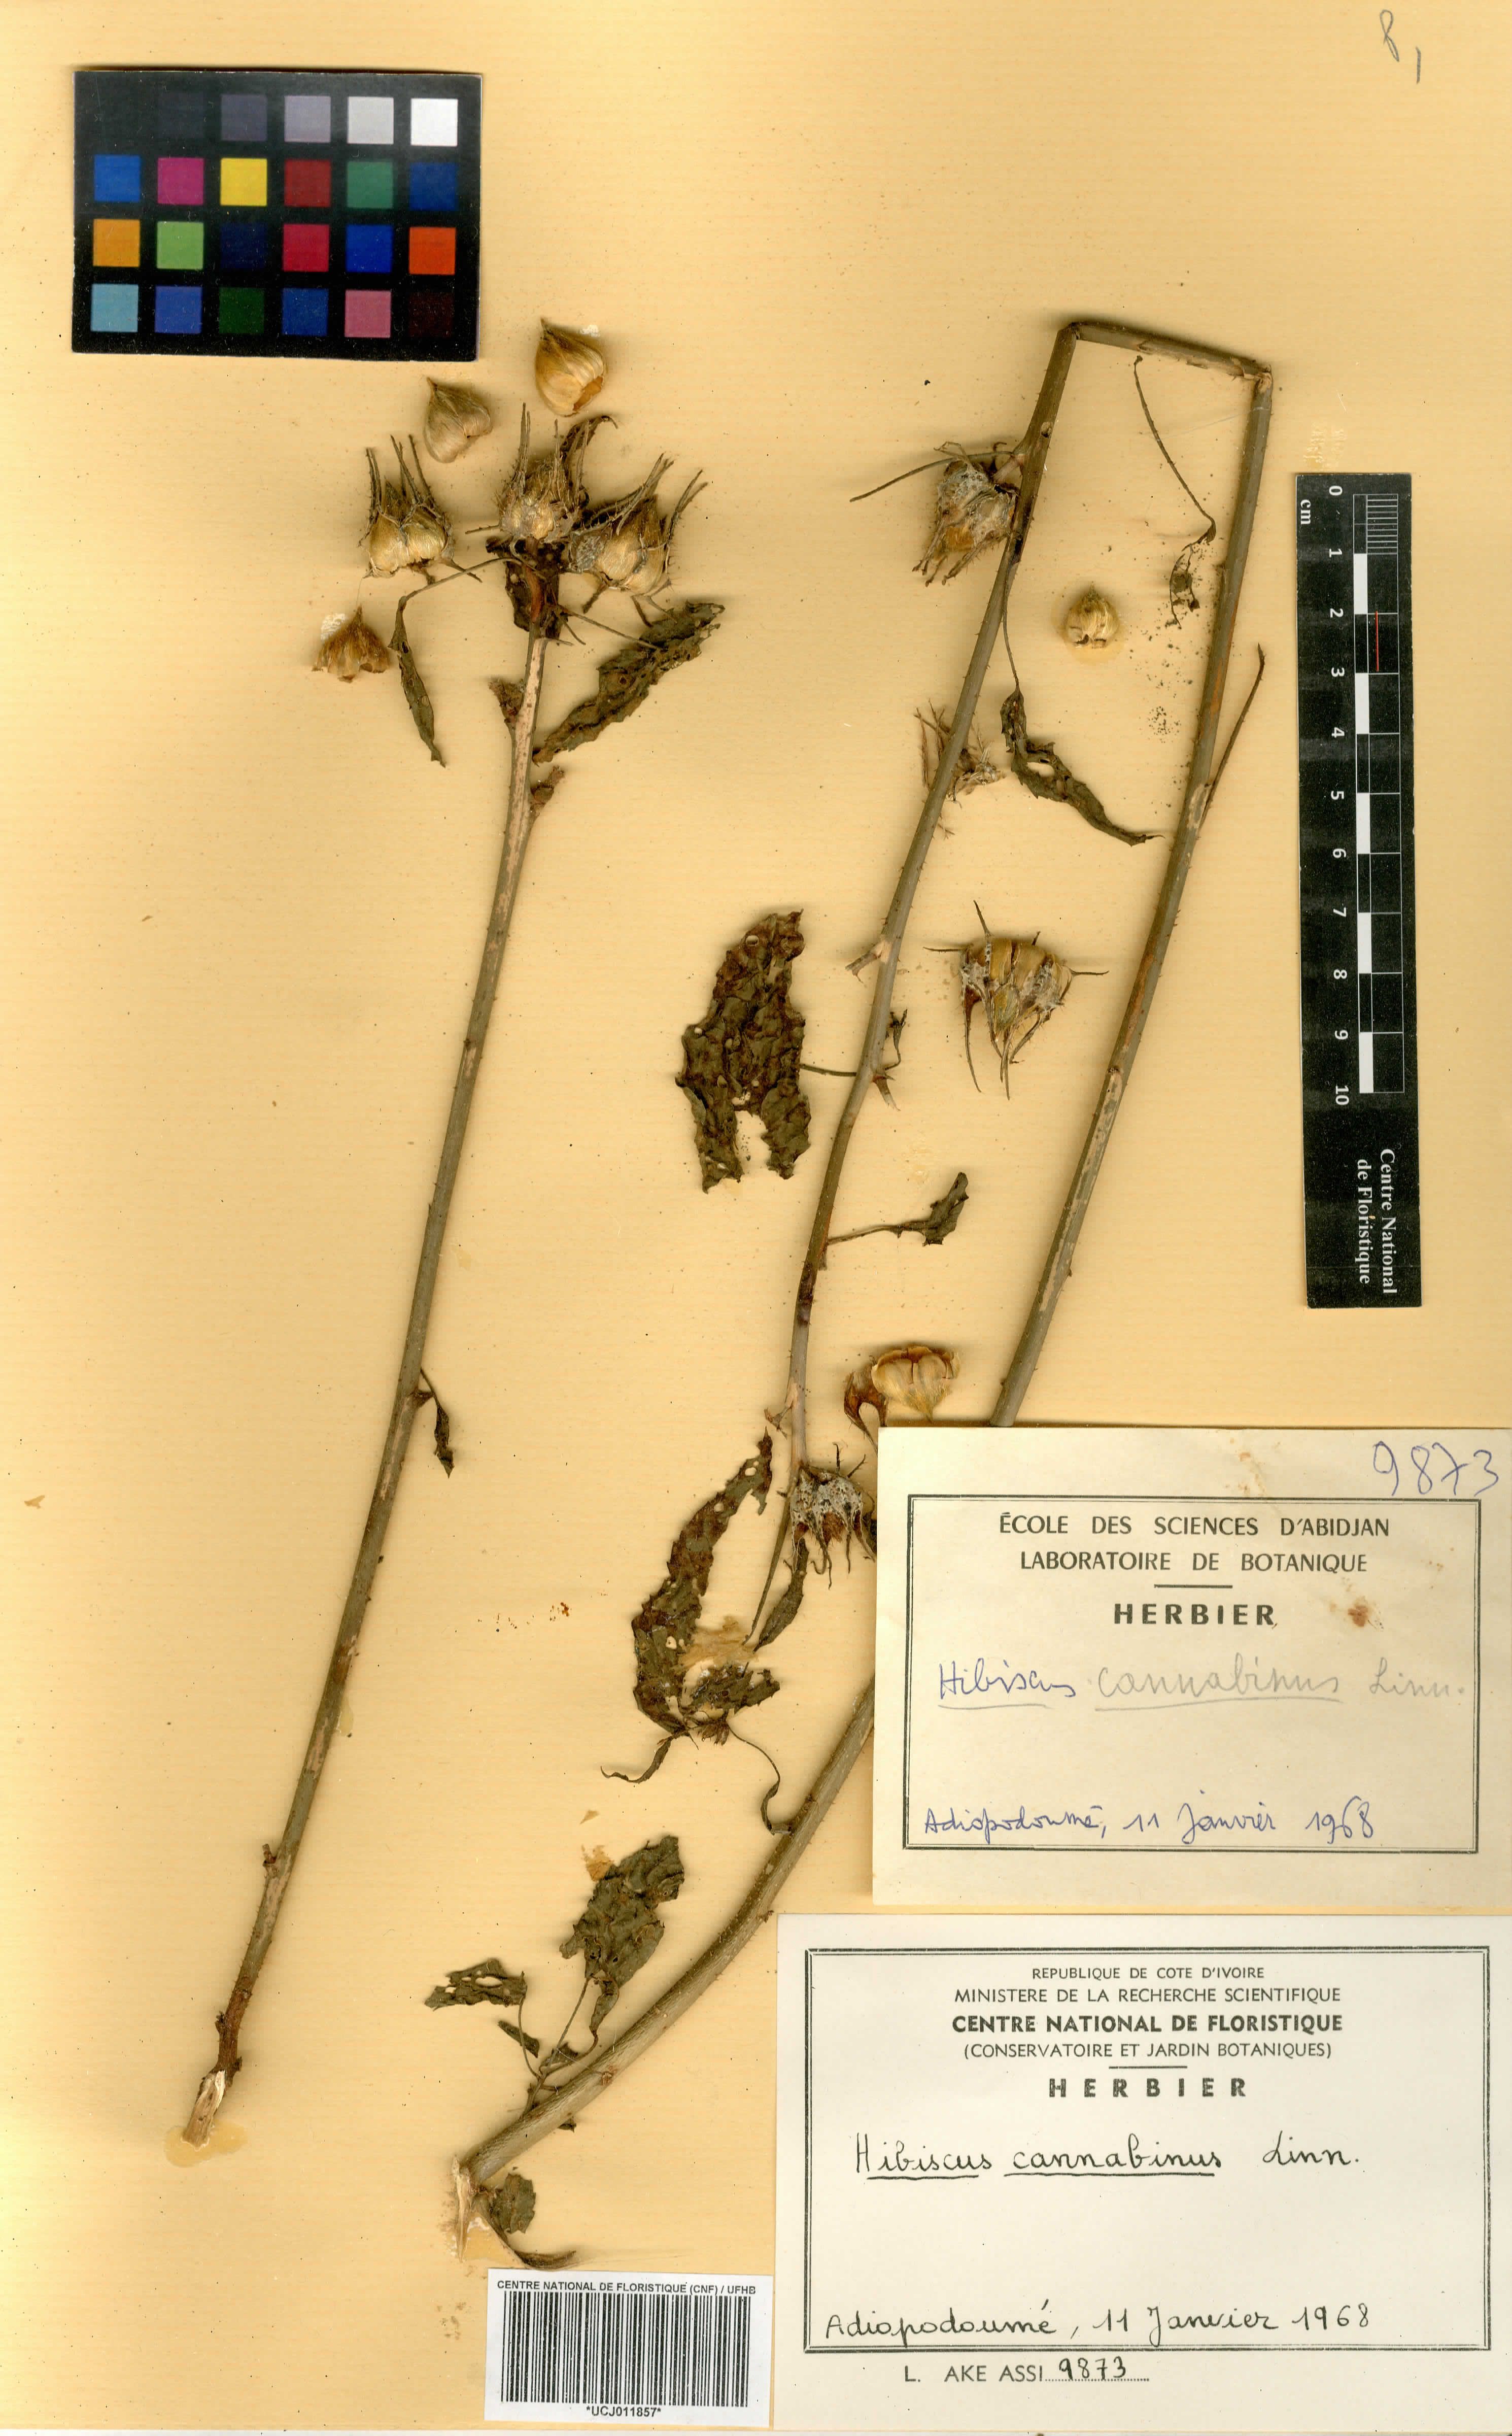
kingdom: Plantae
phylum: Tracheophyta
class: Magnoliopsida
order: Malvales
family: Malvaceae
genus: Hibiscus
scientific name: Hibiscus cannabinus
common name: Brown indianhemp
